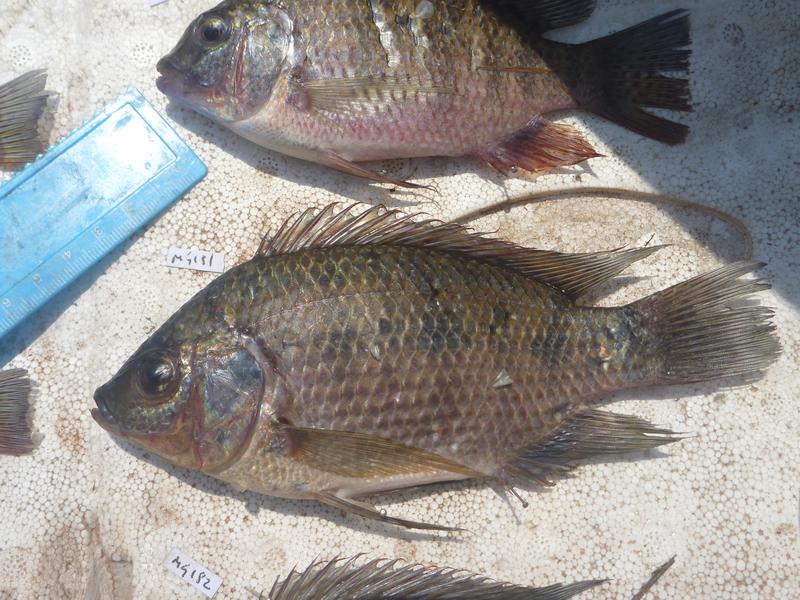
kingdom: Animalia
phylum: Chordata
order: Perciformes
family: Cichlidae
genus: Oreochromis
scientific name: Oreochromis upembae
